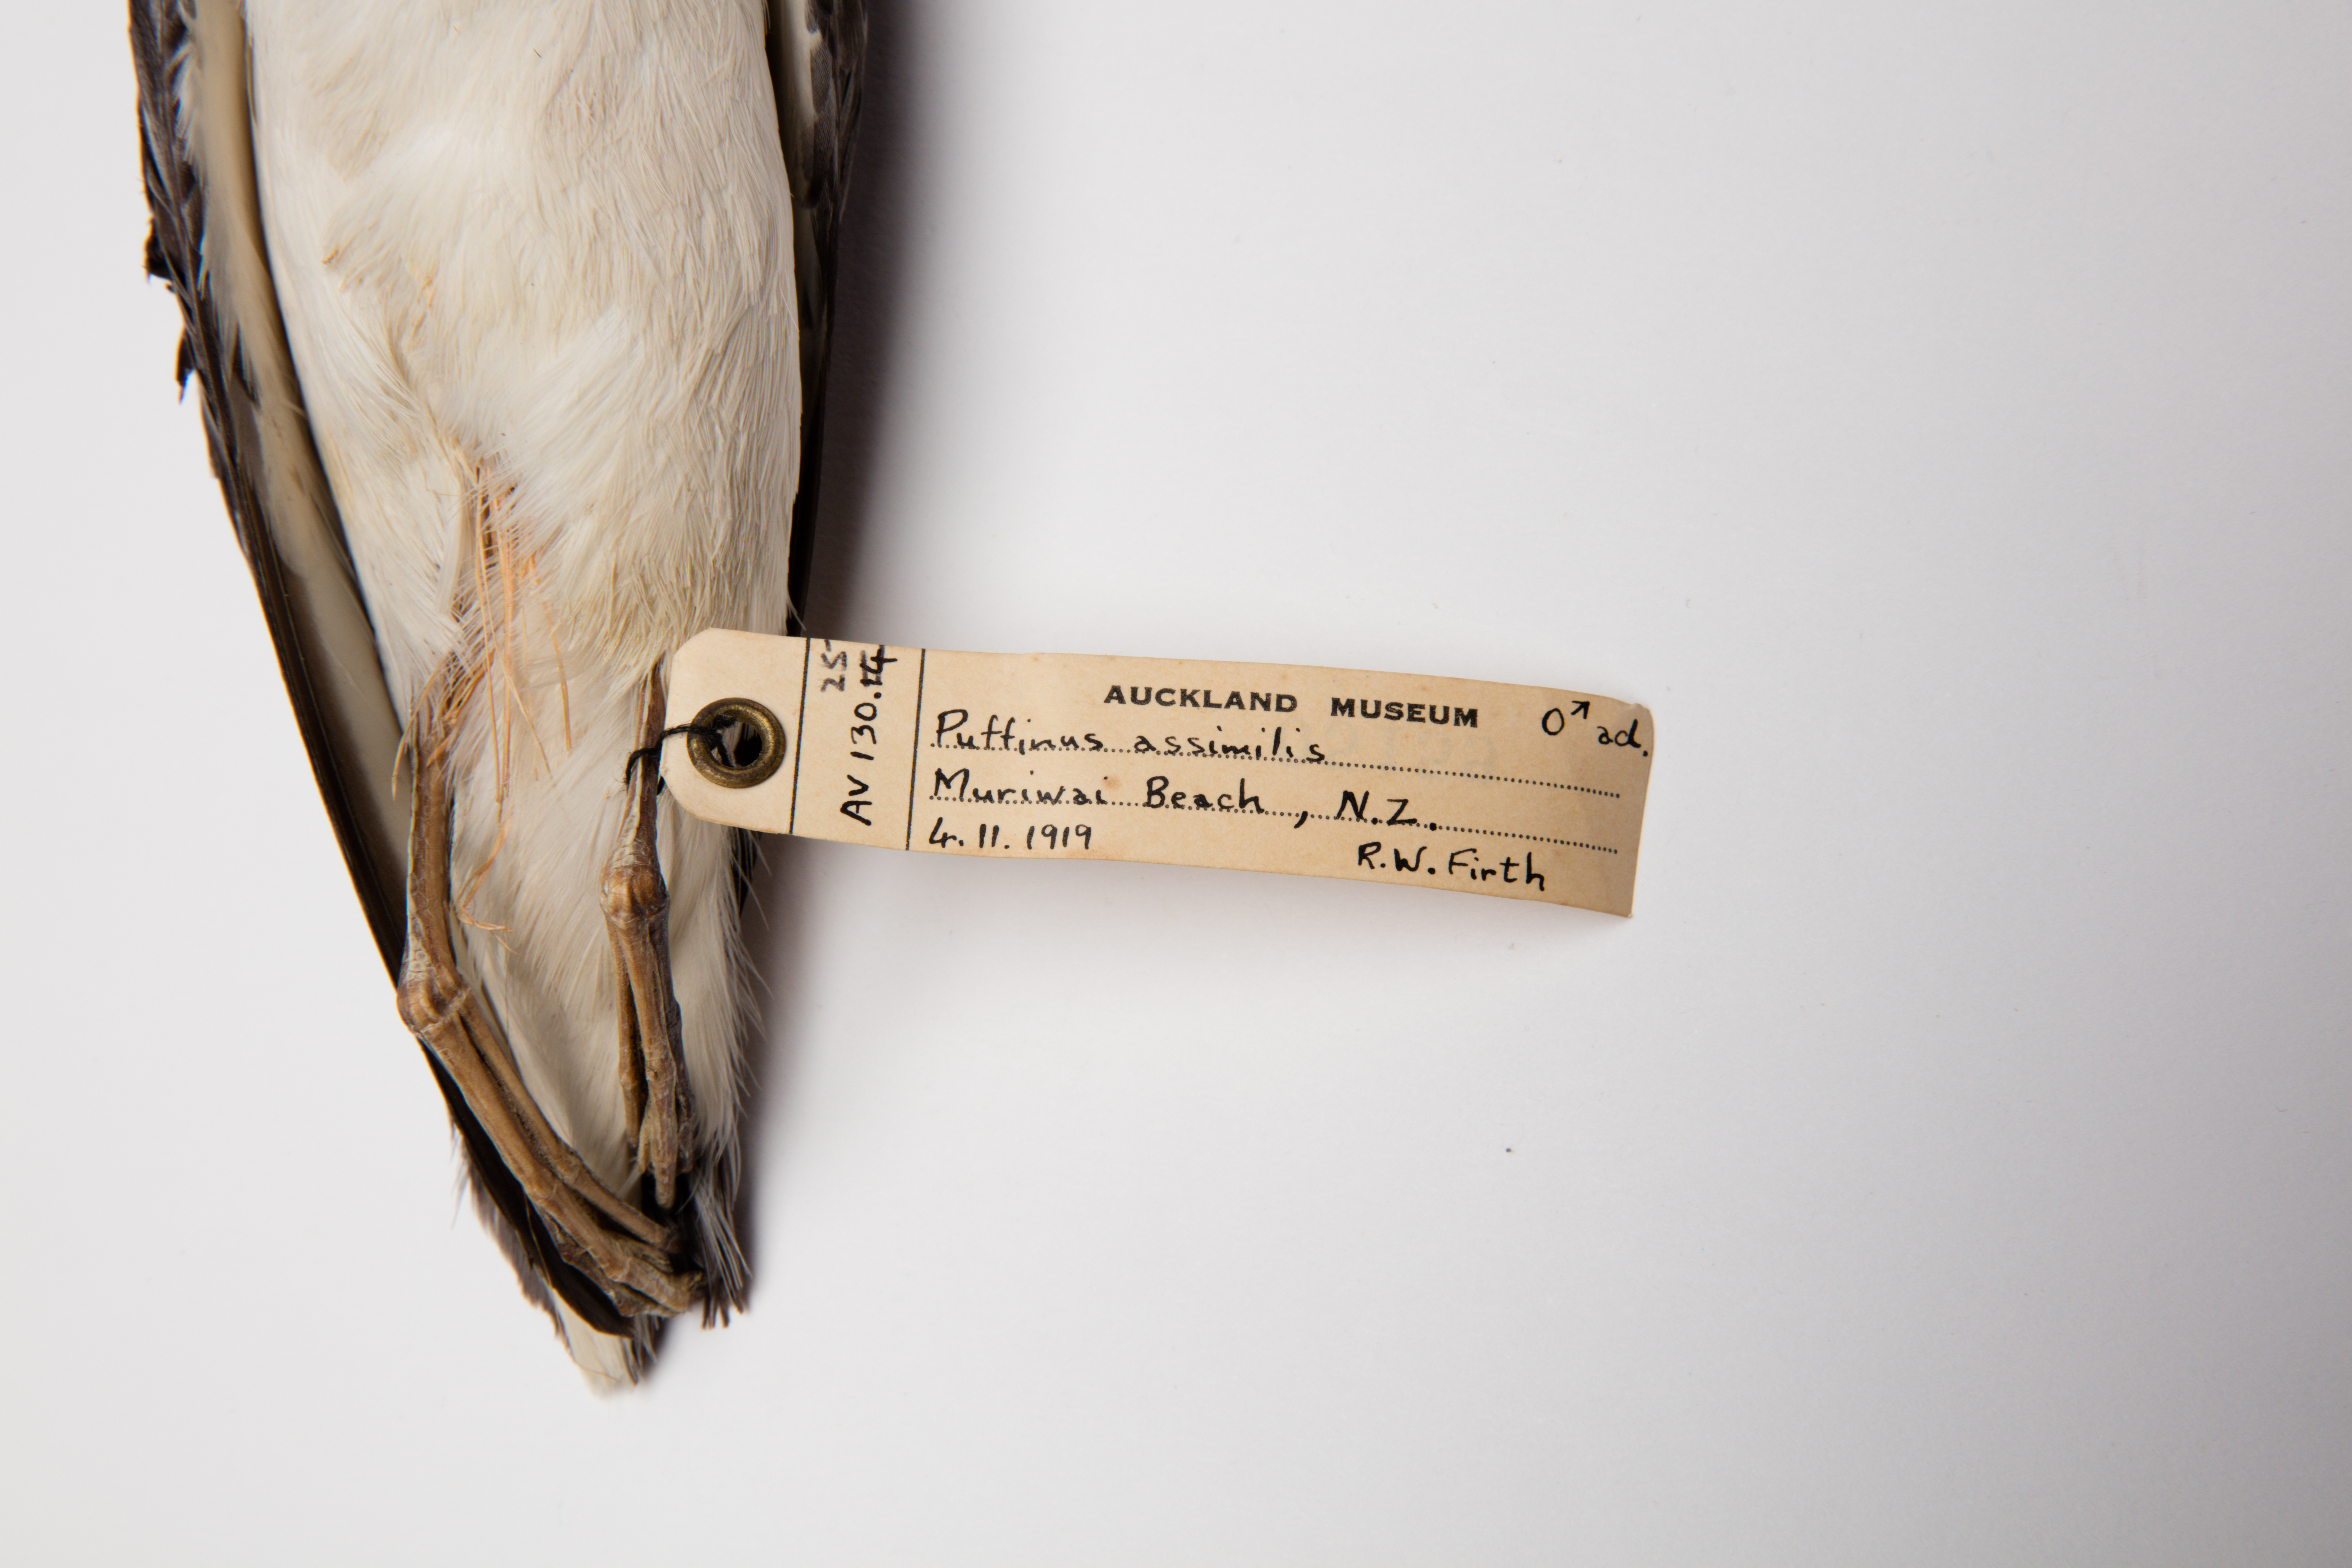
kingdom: Animalia
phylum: Chordata
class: Aves
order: Procellariiformes
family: Procellariidae
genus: Puffinus
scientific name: Puffinus assimilis
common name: Little shearwater
